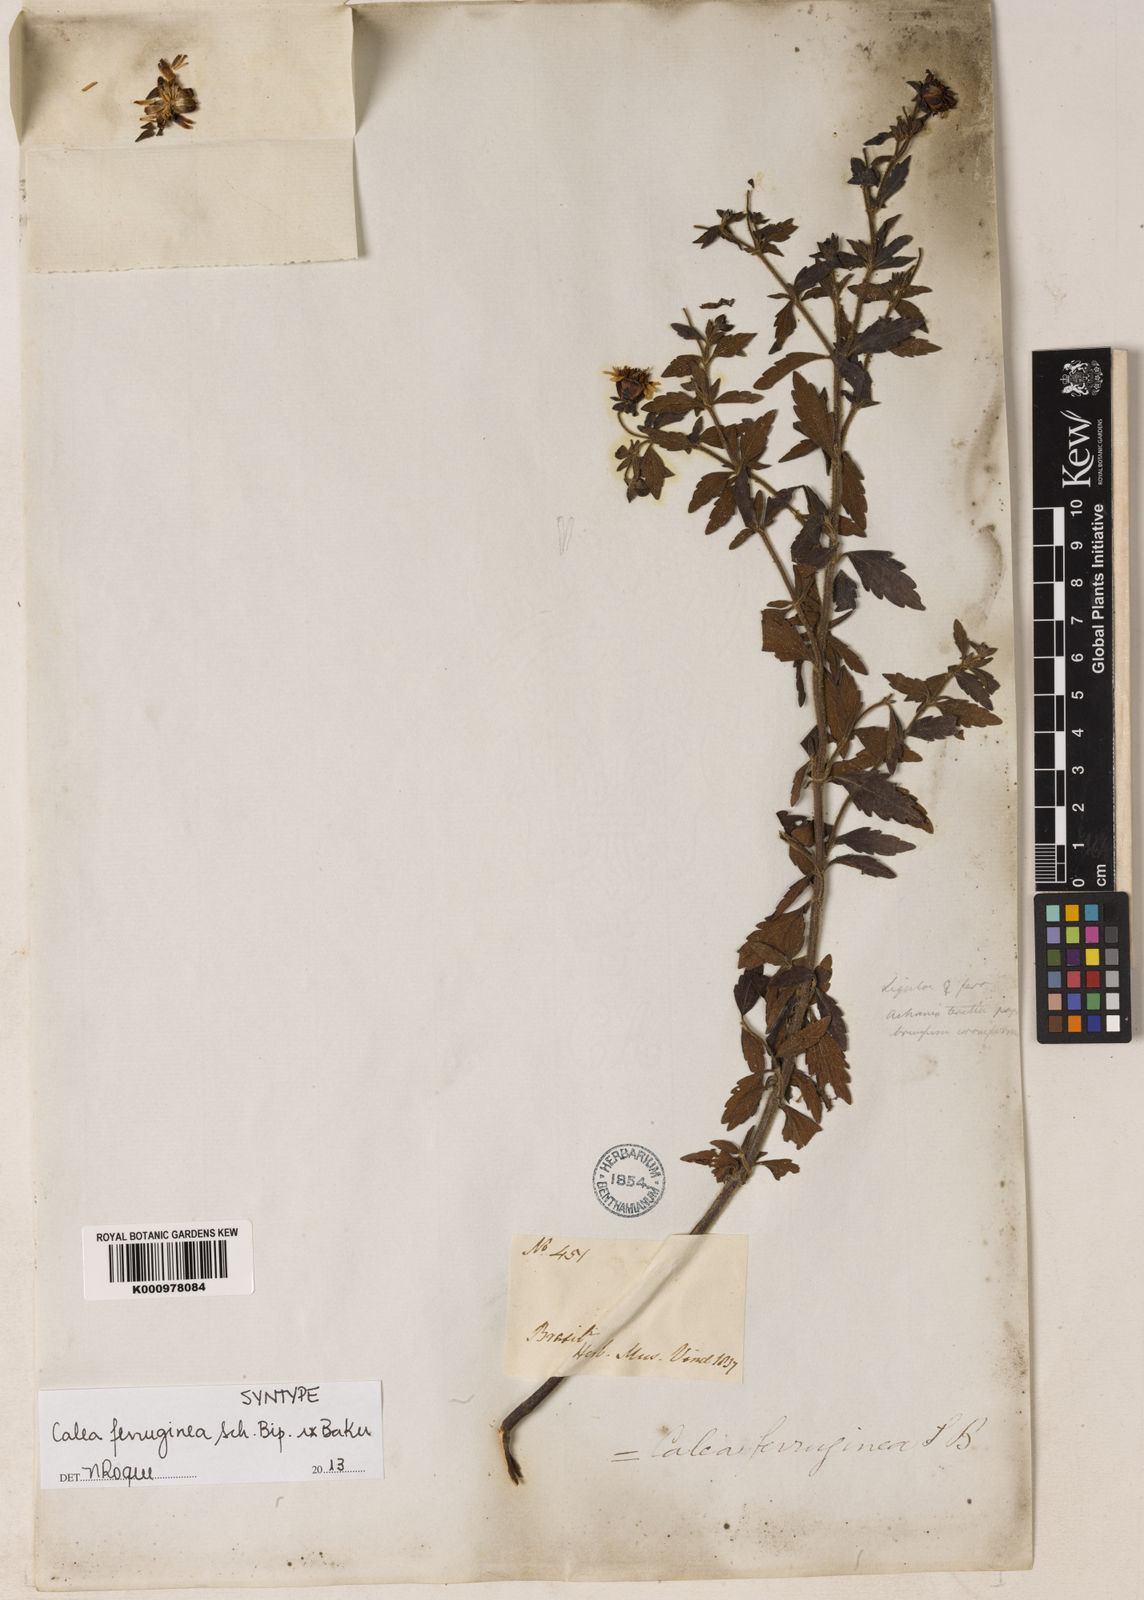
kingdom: Plantae
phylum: Tracheophyta
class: Magnoliopsida
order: Asterales
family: Asteraceae
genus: Calea
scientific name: Calea ferruginea
